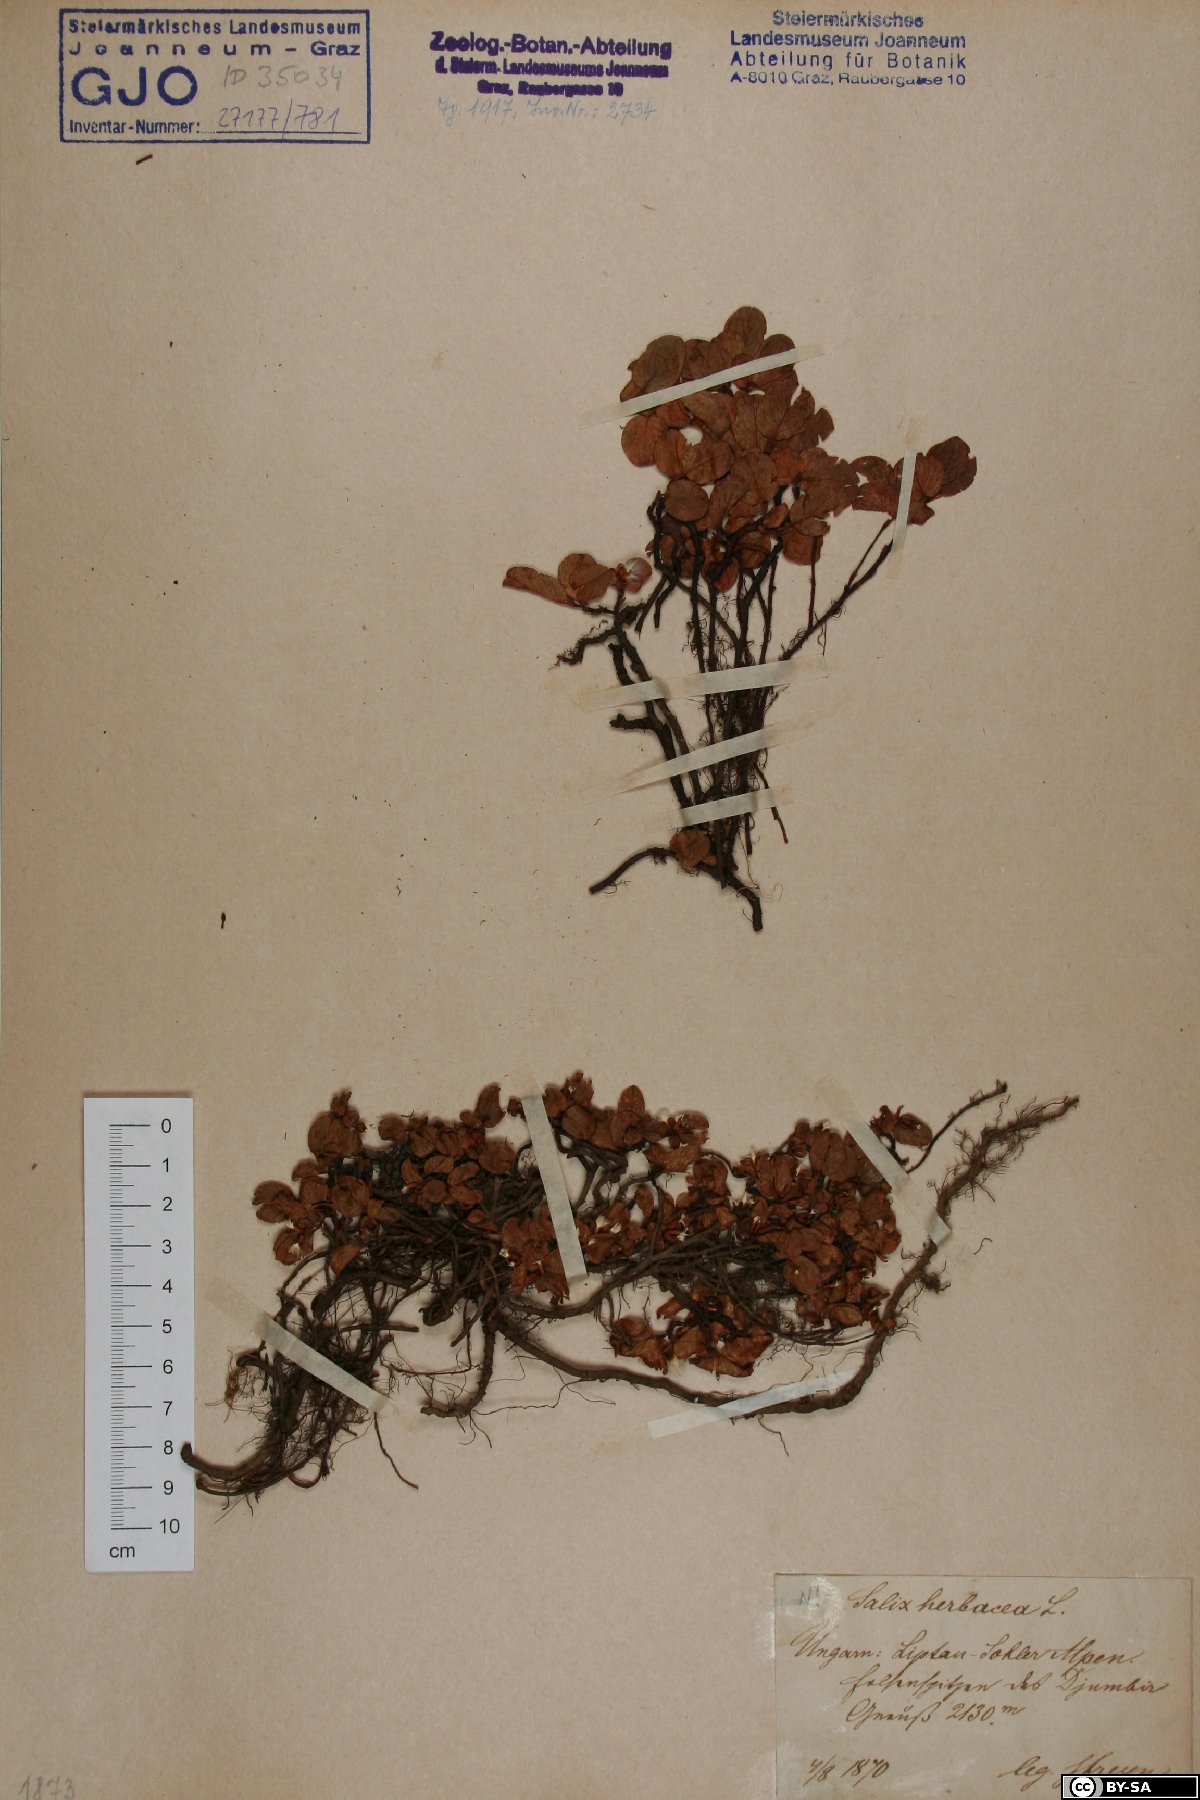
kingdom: Plantae
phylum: Tracheophyta
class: Magnoliopsida
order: Malpighiales
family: Salicaceae
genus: Salix
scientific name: Salix herbacea
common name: Dwarf willow
